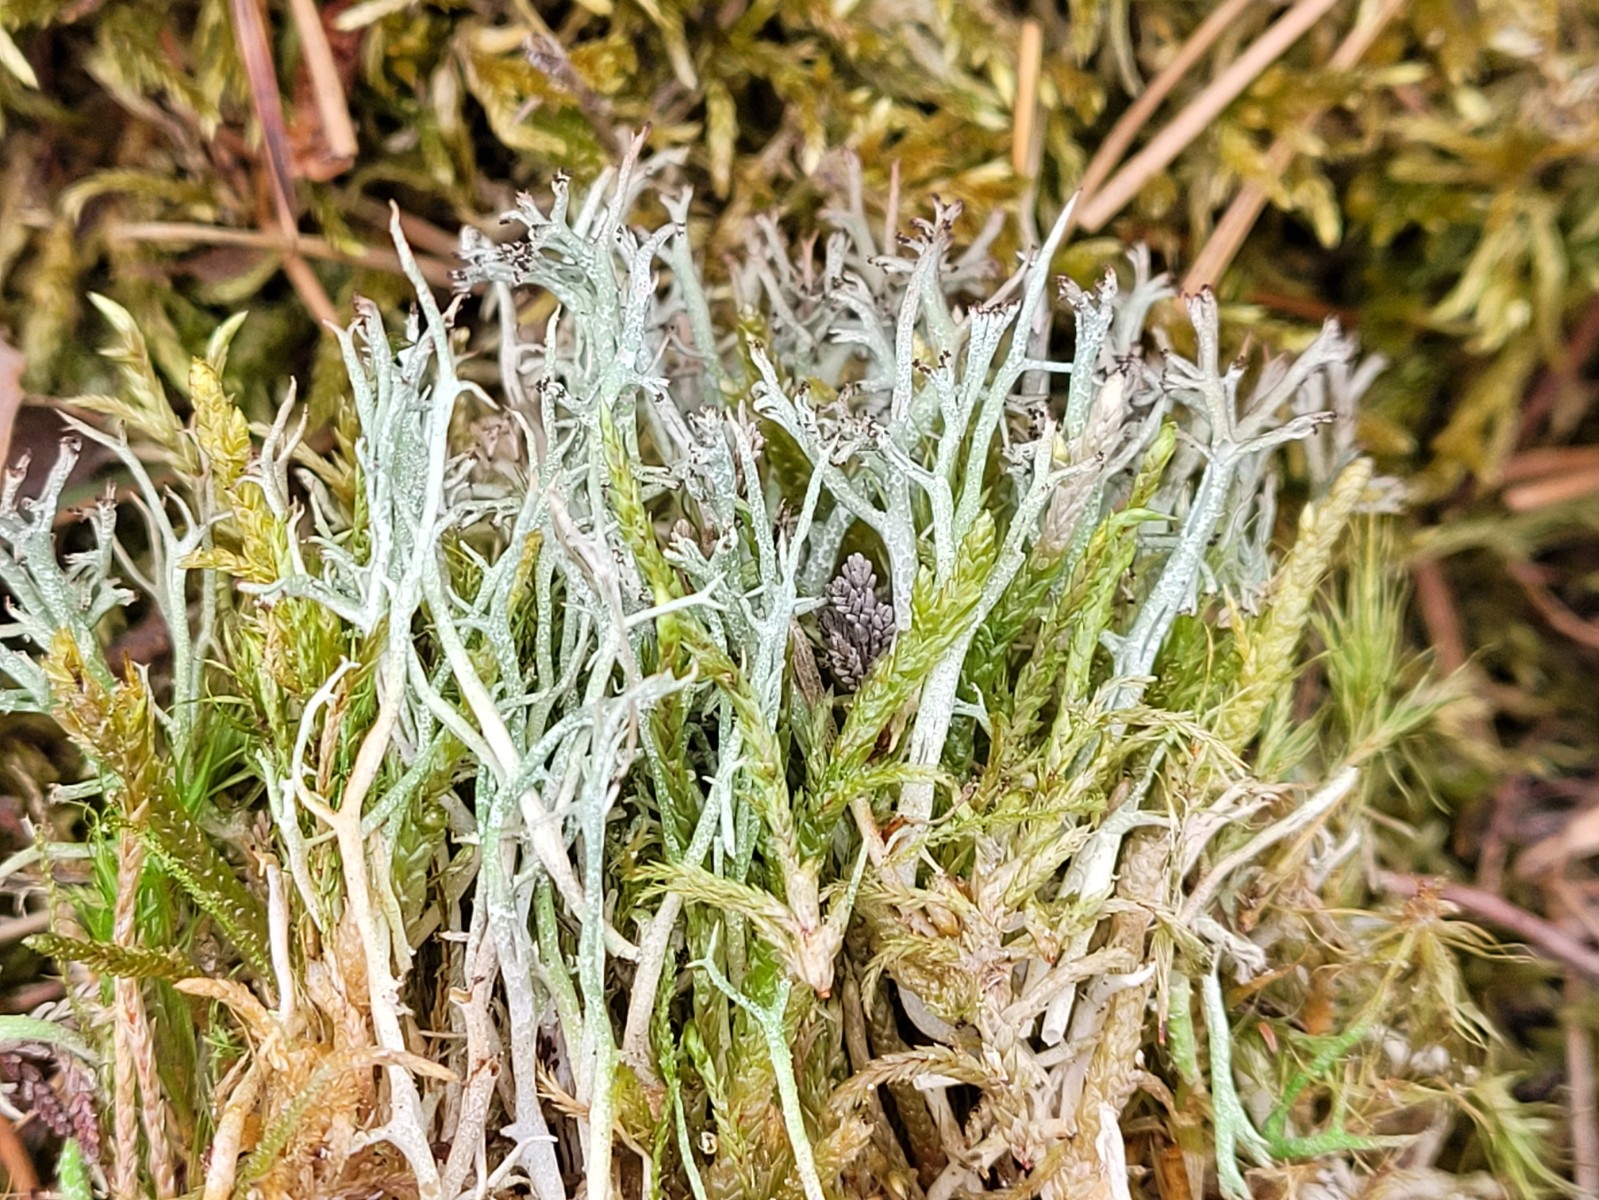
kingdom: Fungi
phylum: Ascomycota
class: Lecanoromycetes
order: Lecanorales
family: Cladoniaceae
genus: Cladonia
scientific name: Cladonia rangiformis
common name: spættet bægerlav
